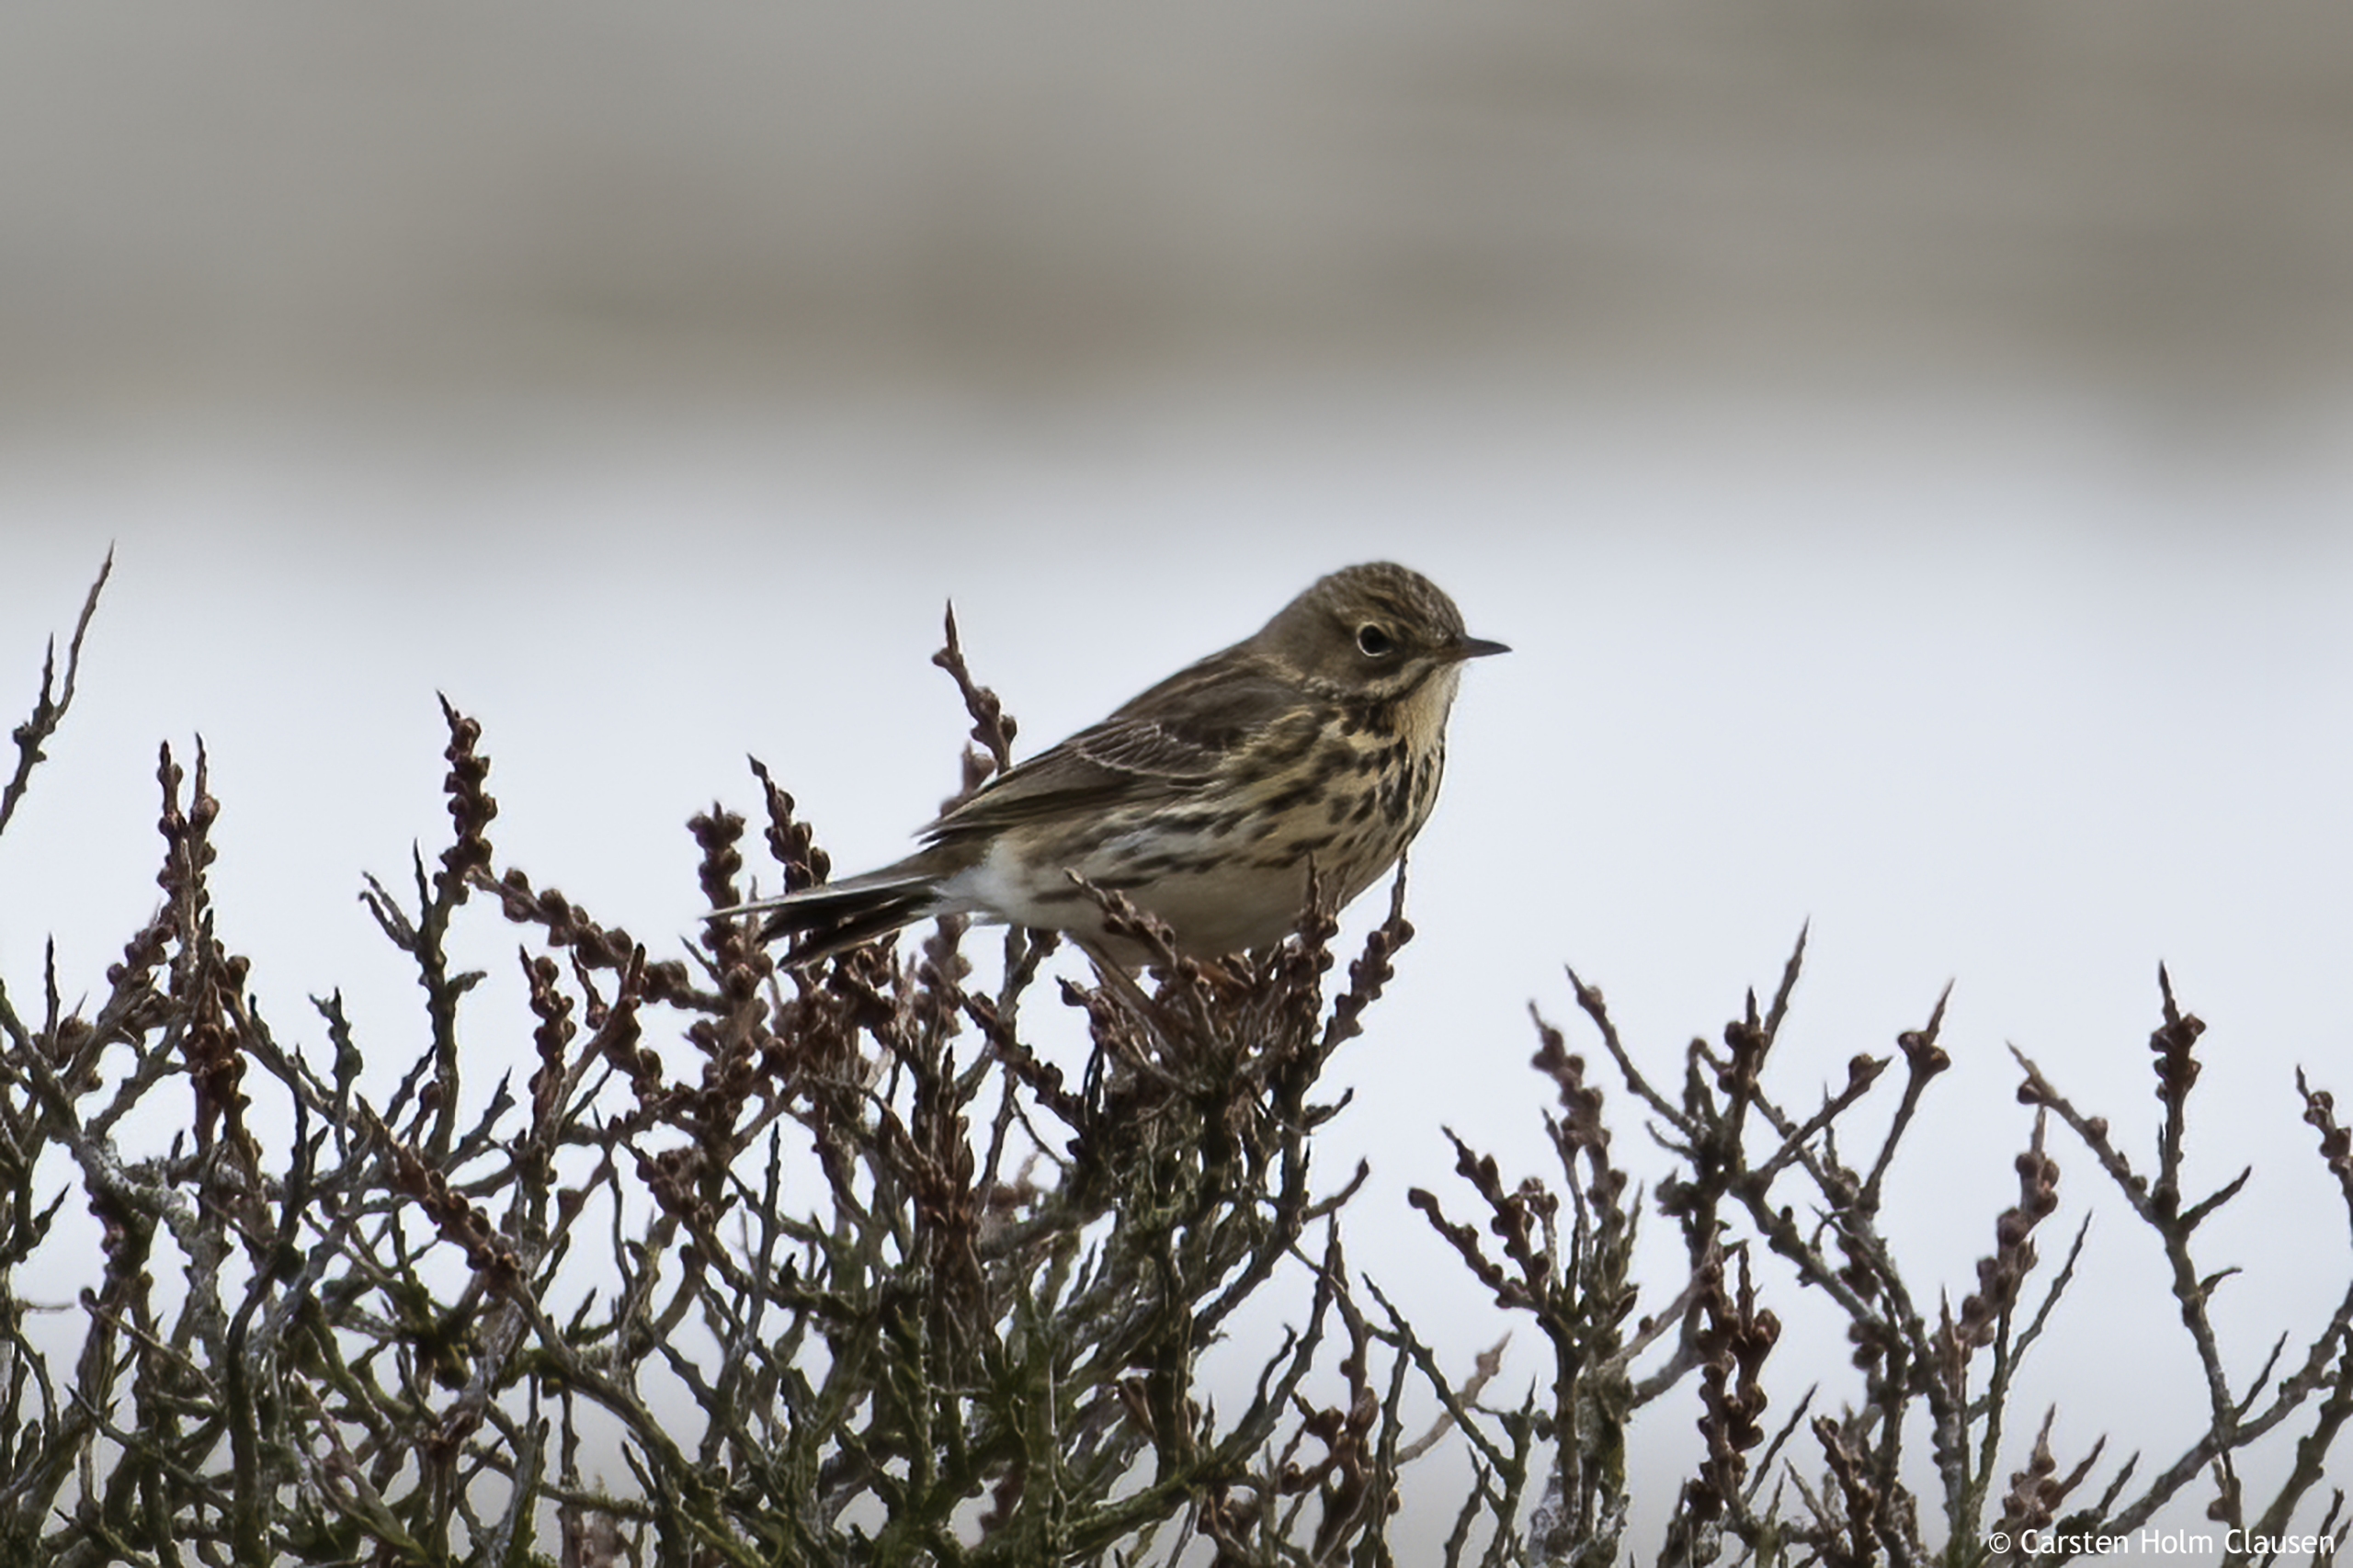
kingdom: Animalia
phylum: Chordata
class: Aves
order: Passeriformes
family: Motacillidae
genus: Anthus
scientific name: Anthus pratensis
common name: Engpiber
